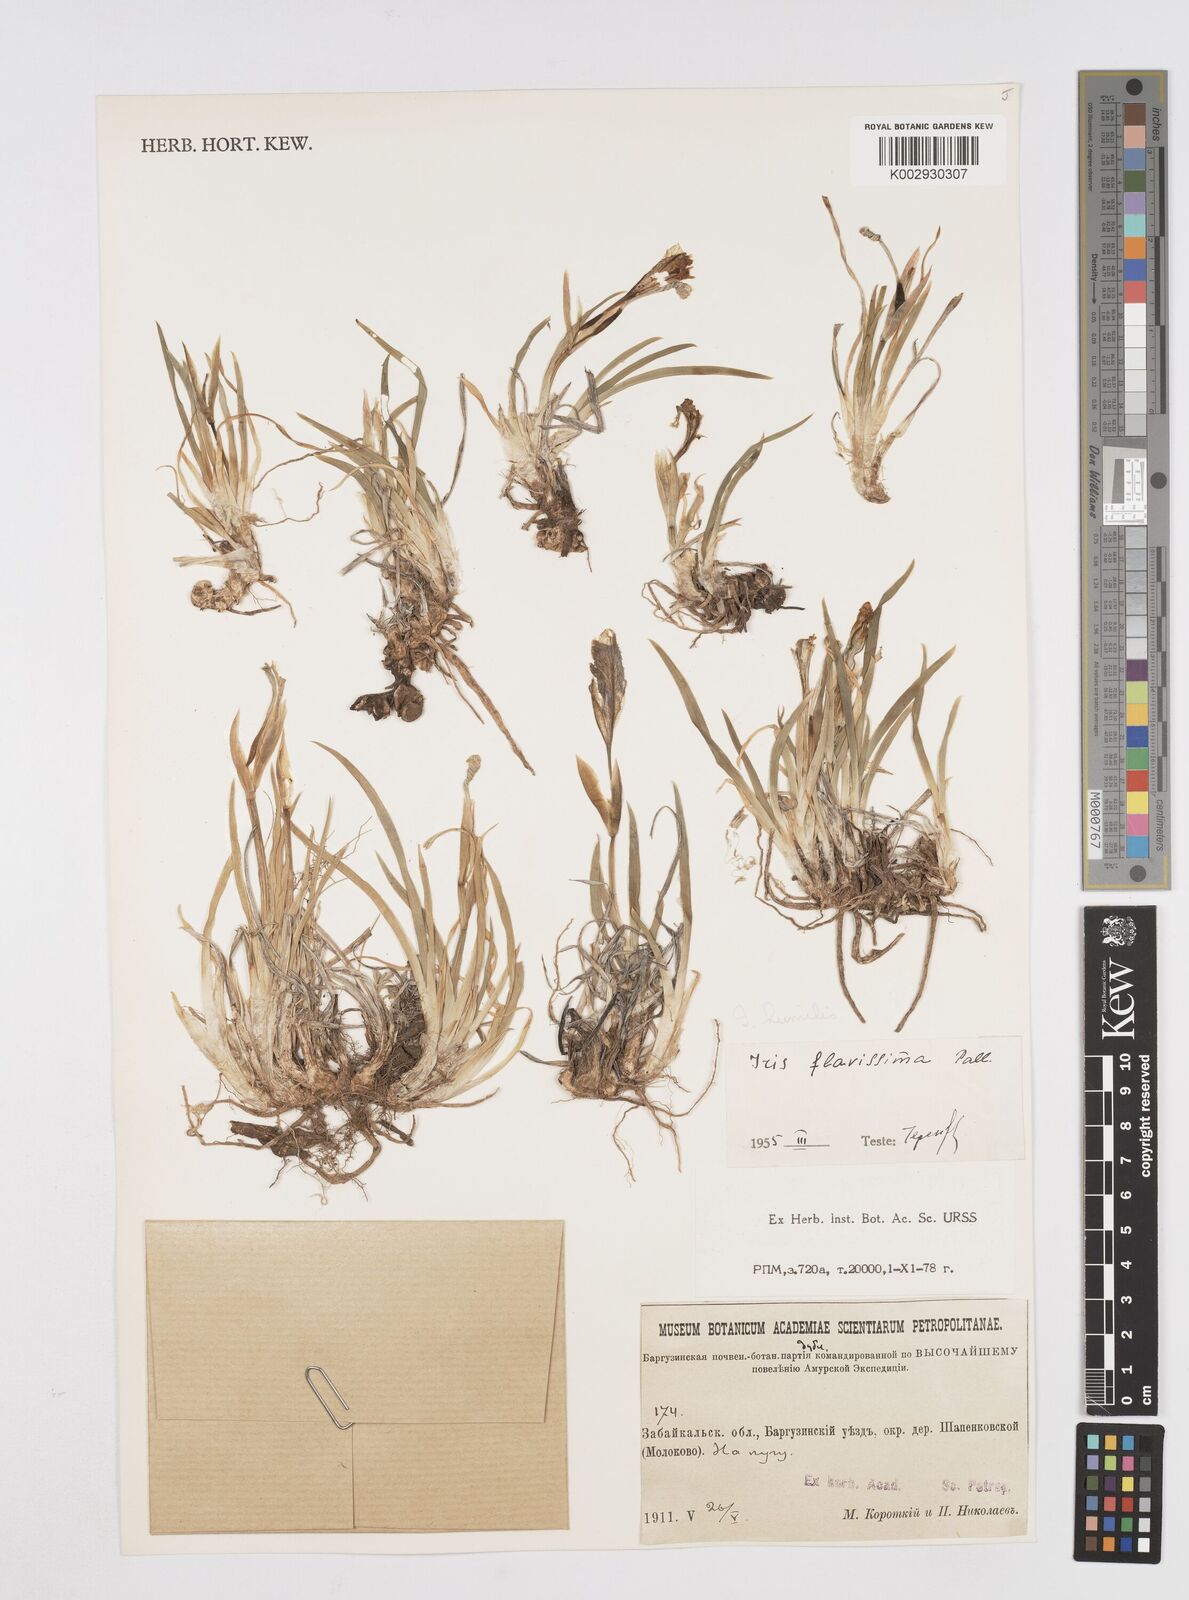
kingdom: Plantae
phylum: Tracheophyta
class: Liliopsida
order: Asparagales
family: Iridaceae
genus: Iris
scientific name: Iris humilis
